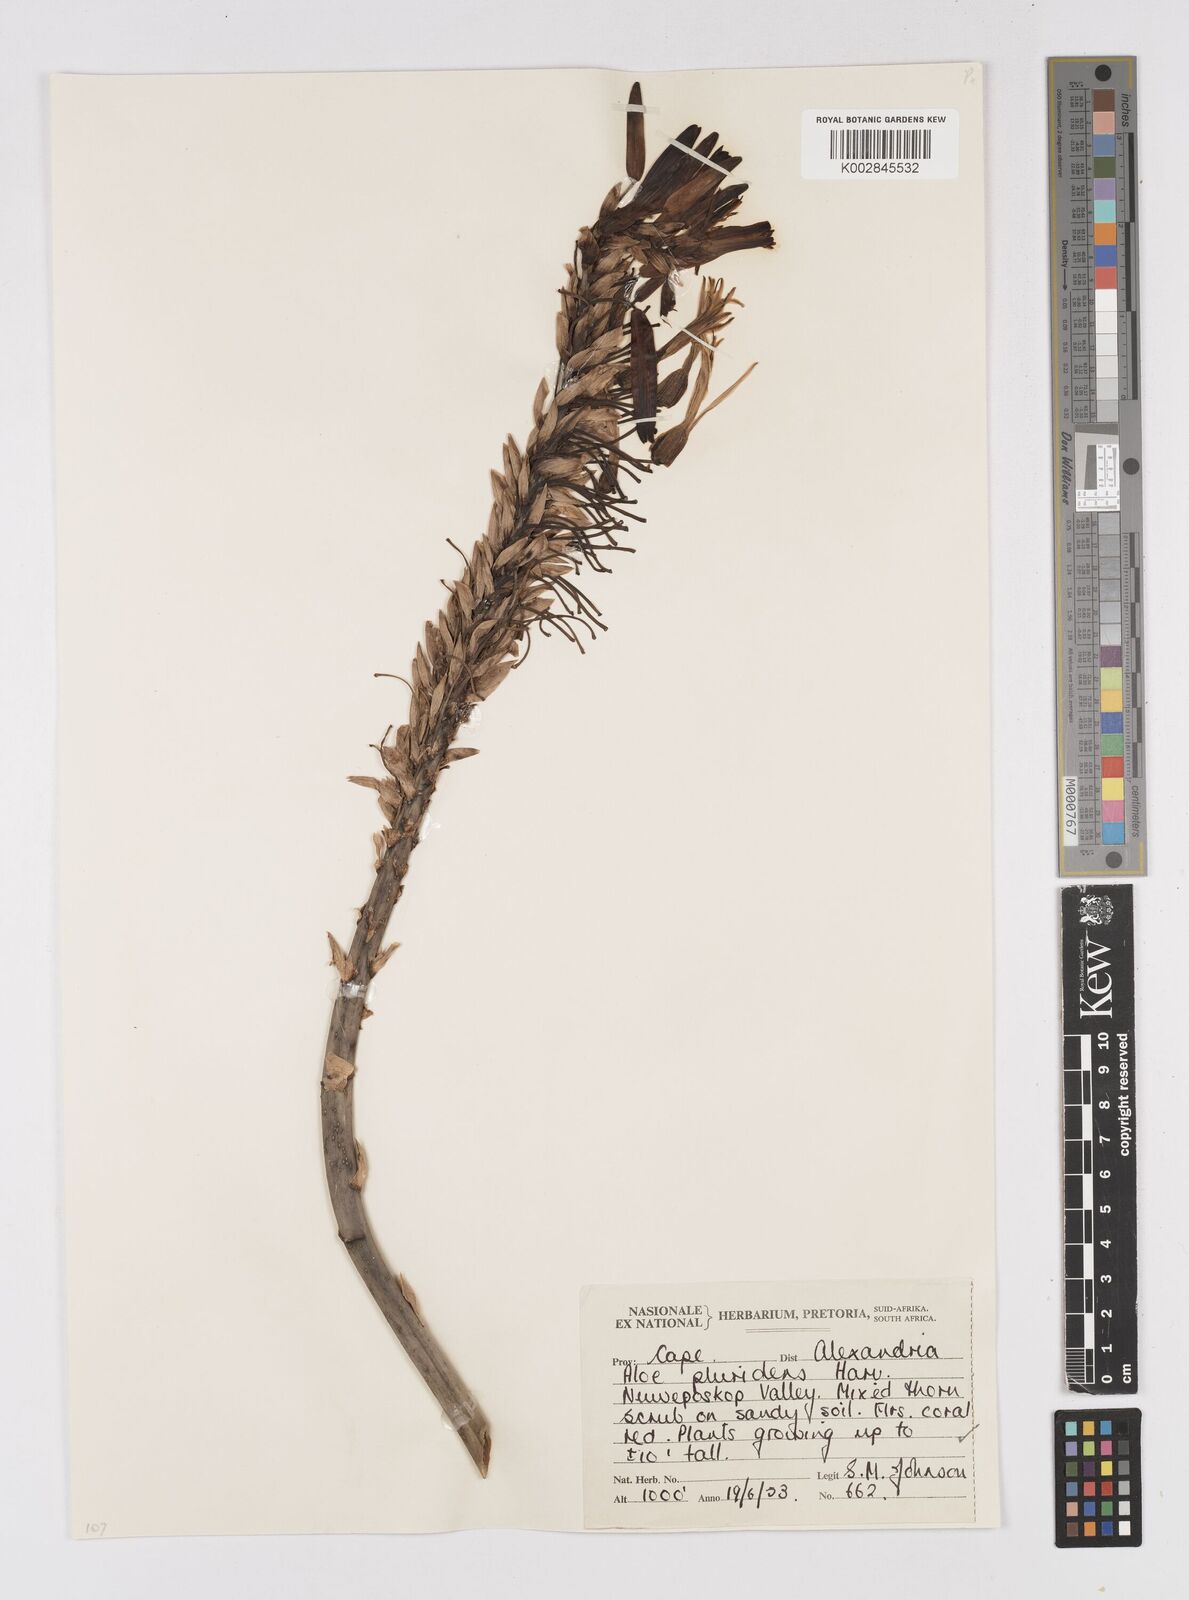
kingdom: Plantae
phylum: Tracheophyta
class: Liliopsida
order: Asparagales
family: Asphodelaceae
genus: Aloe
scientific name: Aloe pluridens
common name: French aloe
